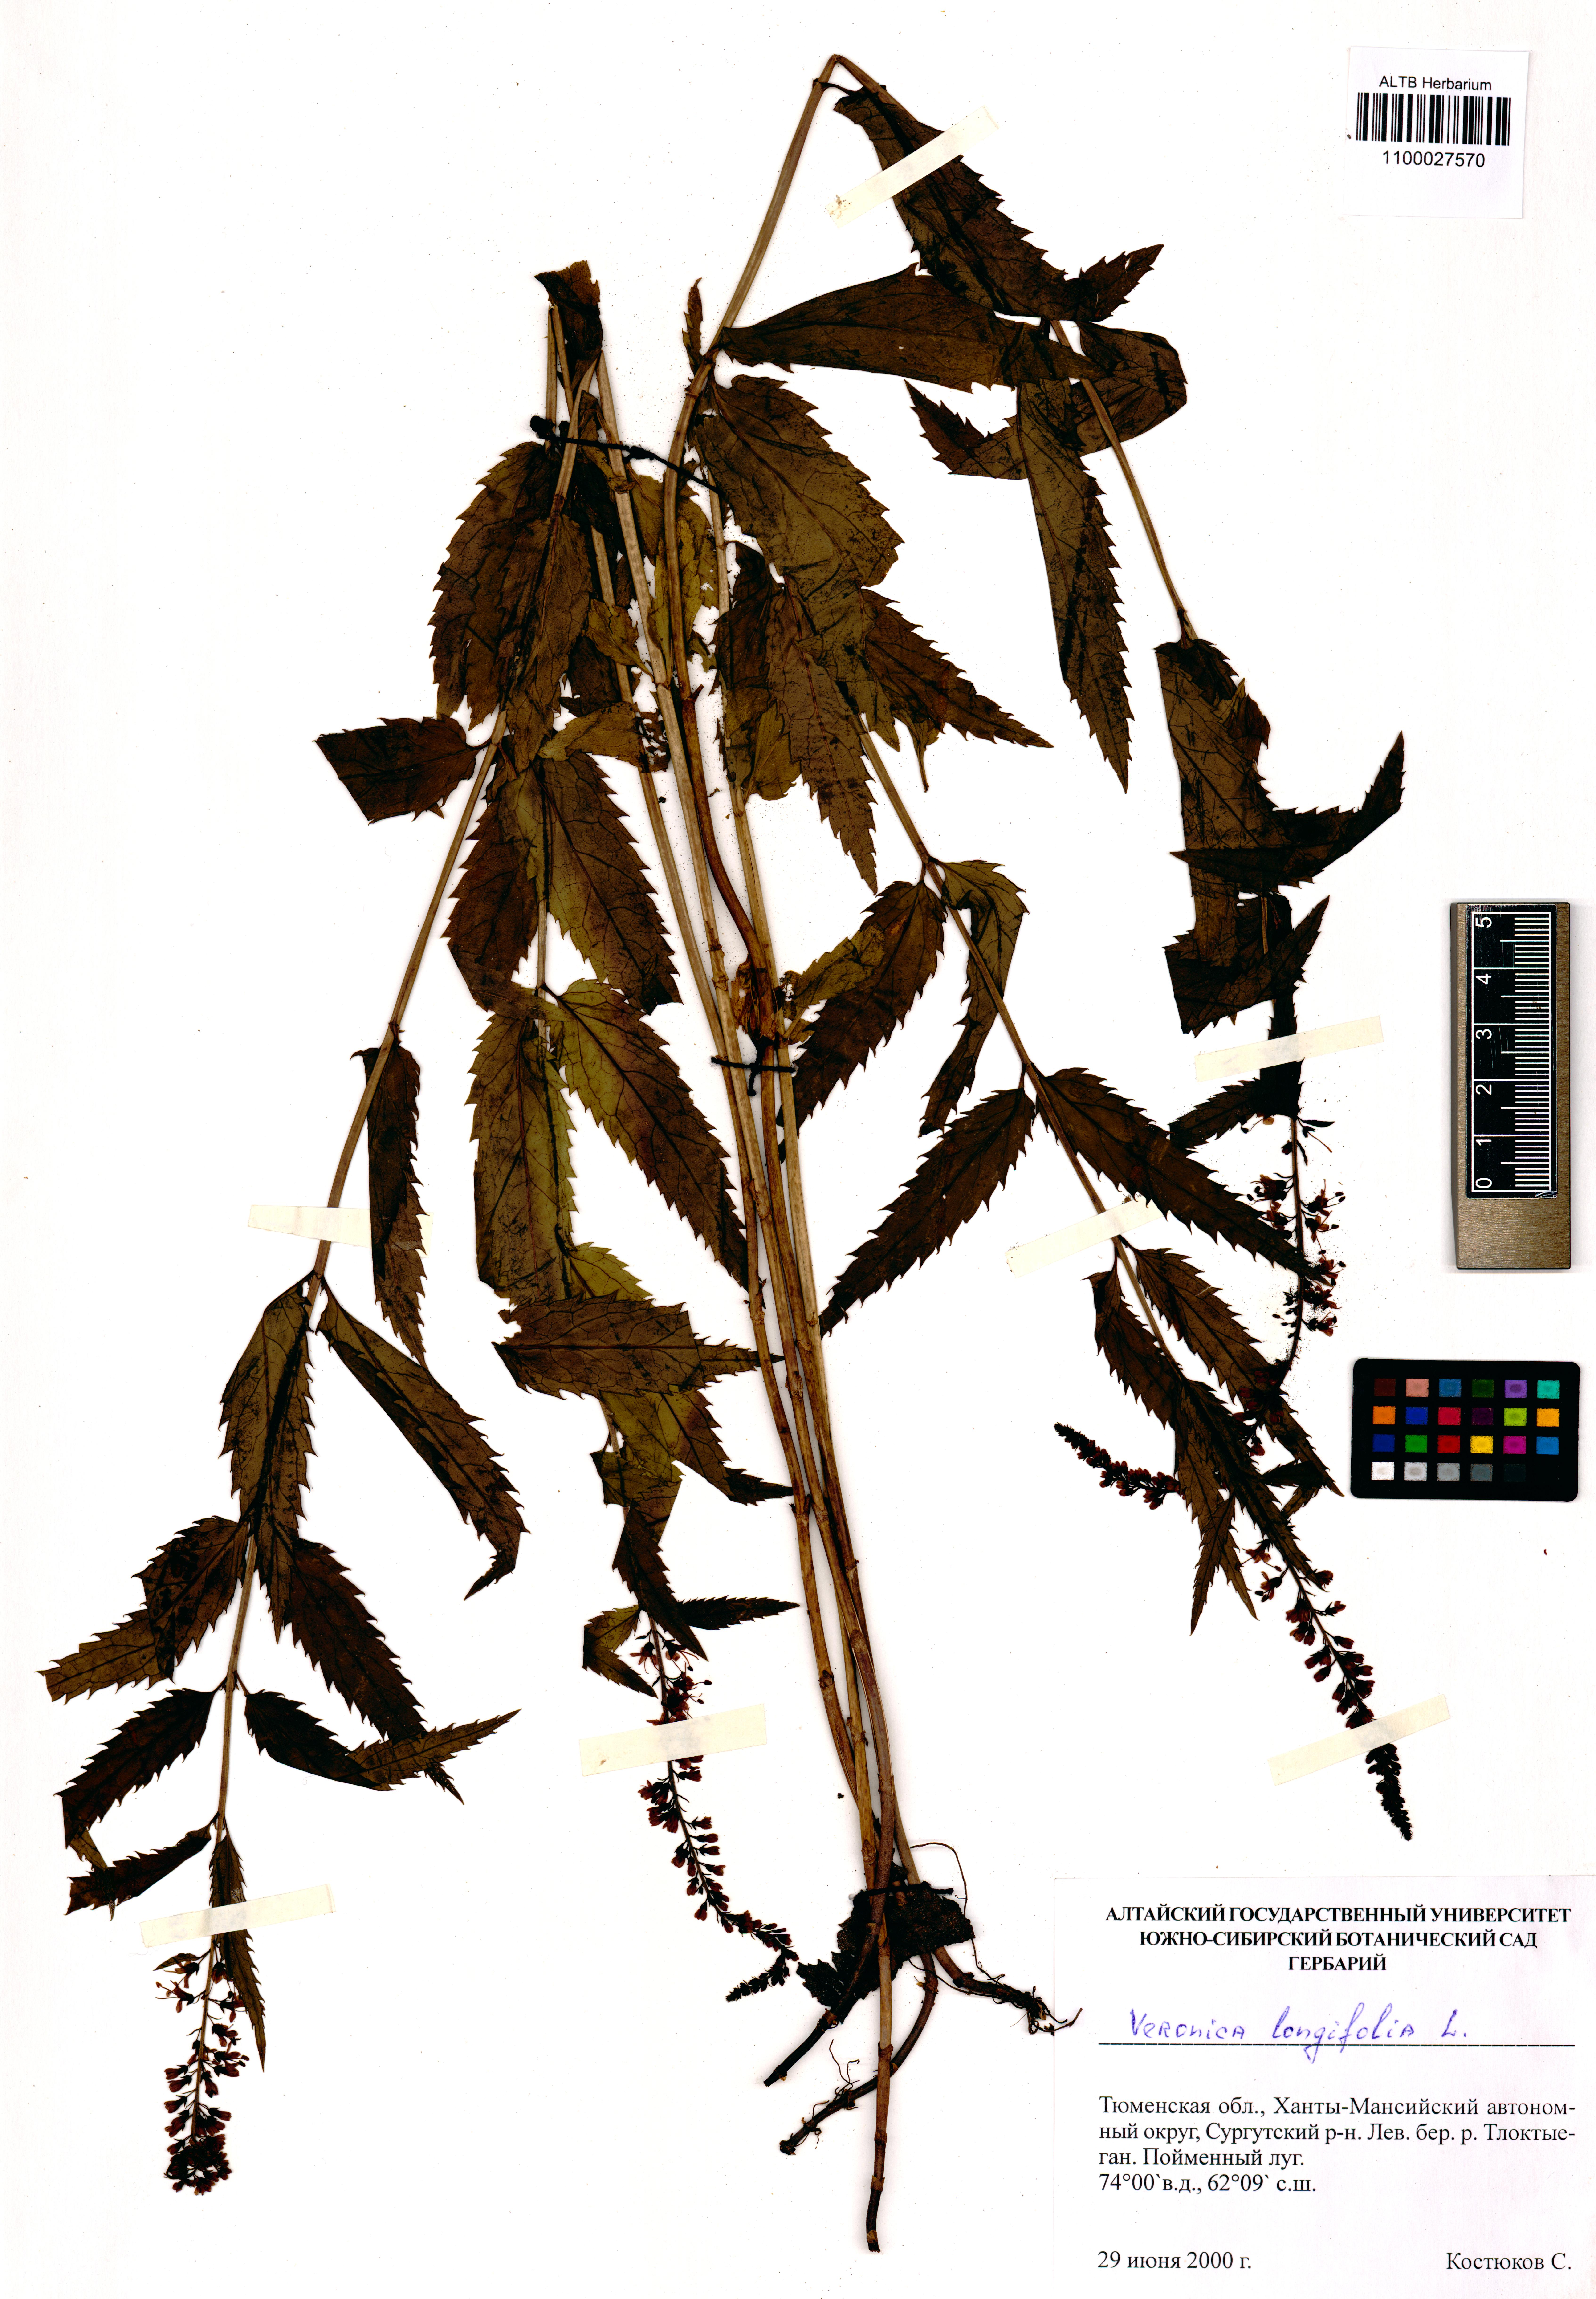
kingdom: Plantae
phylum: Tracheophyta
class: Magnoliopsida
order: Lamiales
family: Plantaginaceae
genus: Veronica
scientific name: Veronica longifolia
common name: Garden speedwell
